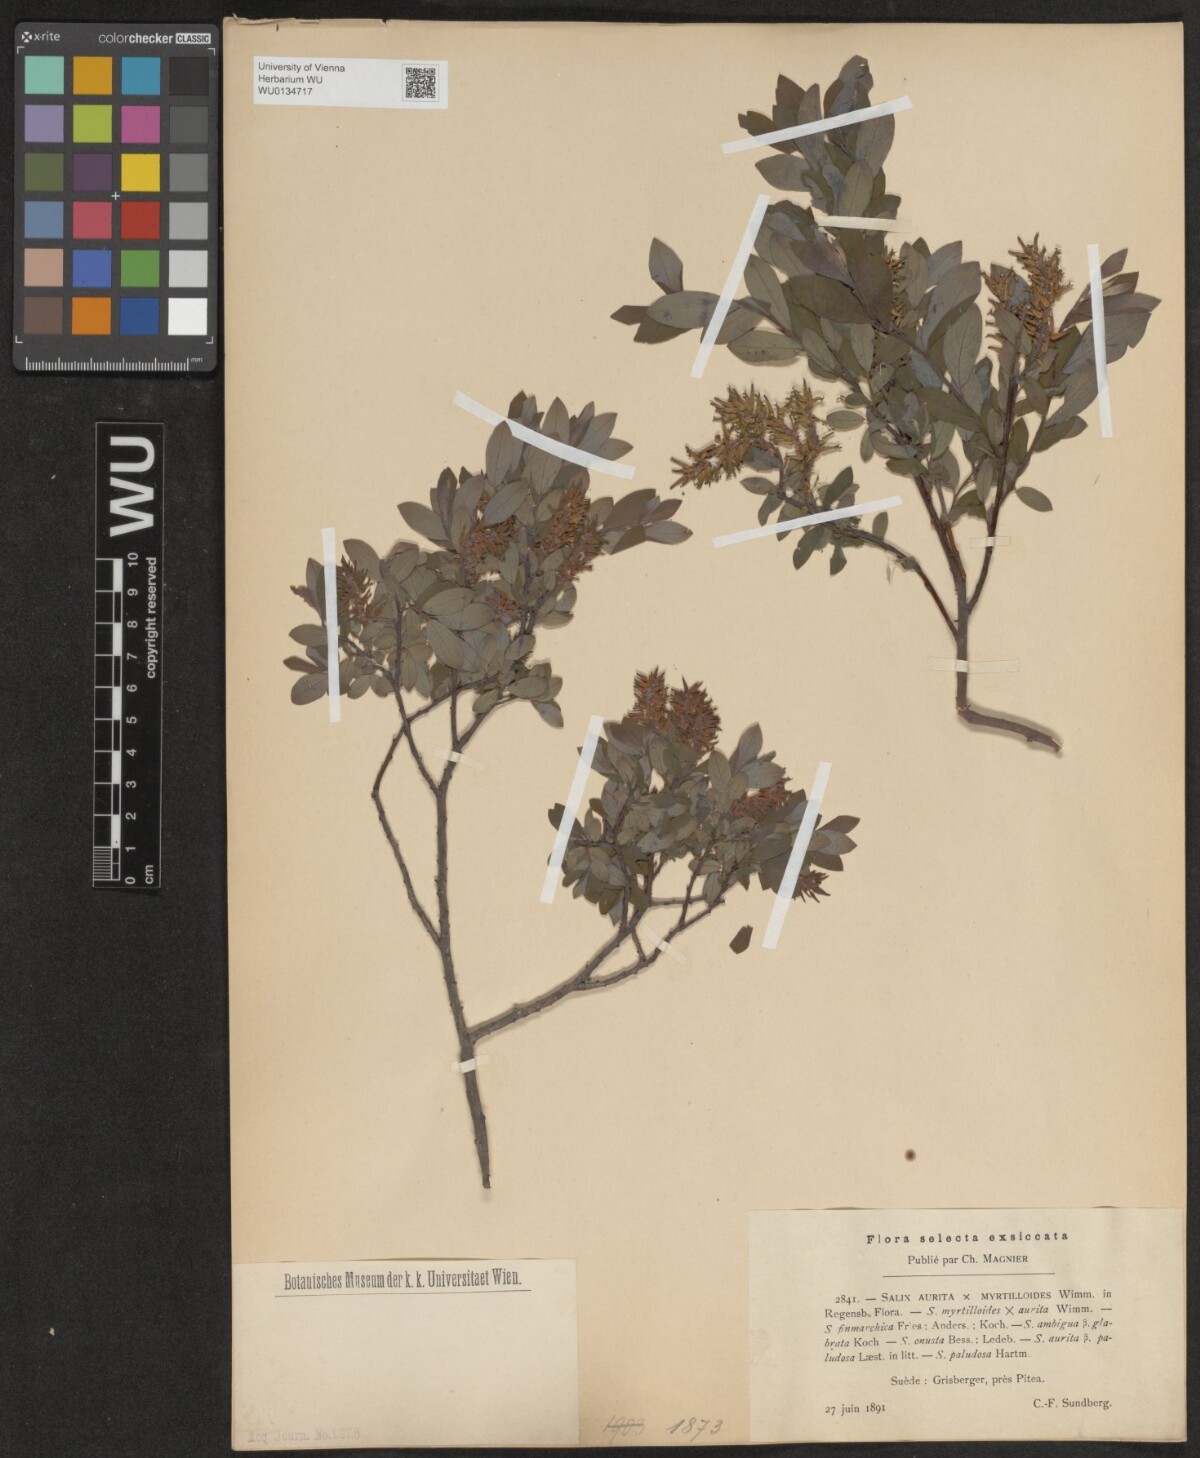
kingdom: Plantae
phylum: Tracheophyta
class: Magnoliopsida
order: Malpighiales
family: Salicaceae
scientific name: Salicaceae
